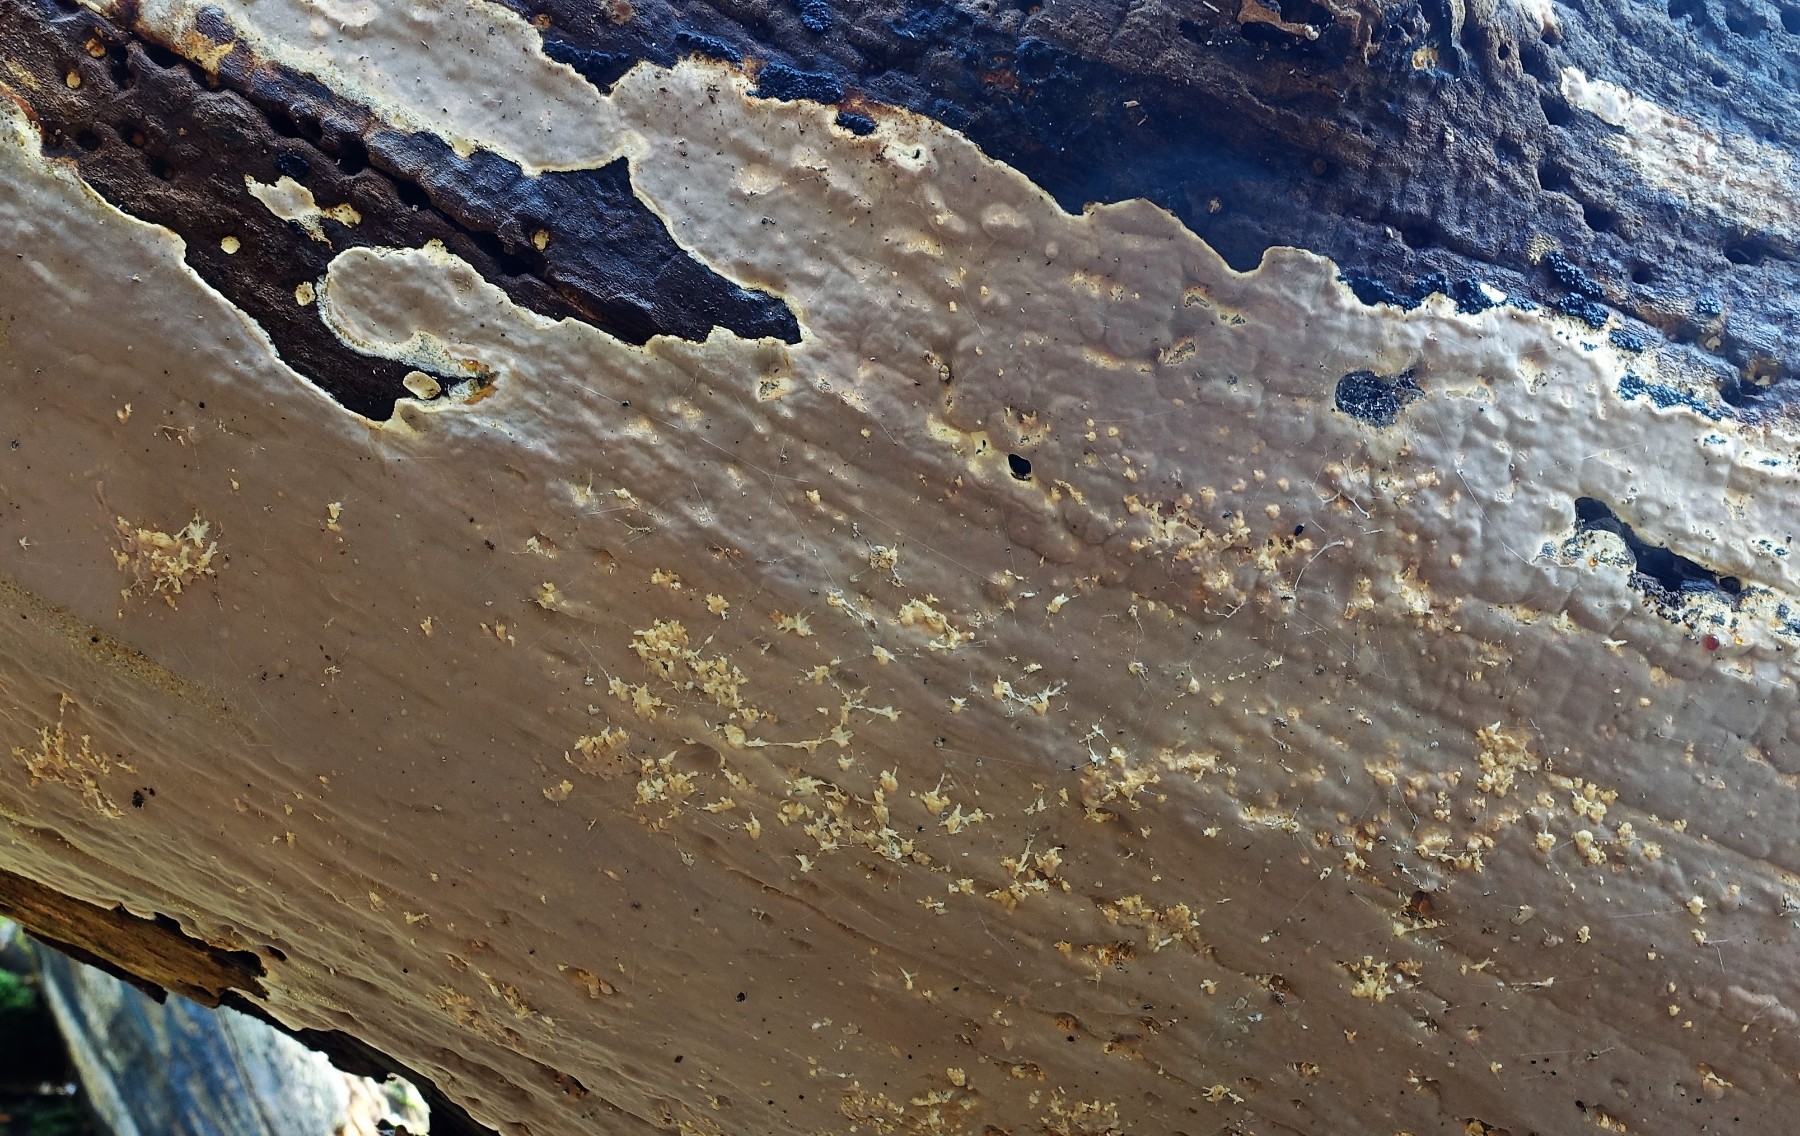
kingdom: Fungi
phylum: Basidiomycota
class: Agaricomycetes
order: Russulales
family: Peniophoraceae
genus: Scytinostroma
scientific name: Scytinostroma hemidichophyticum
